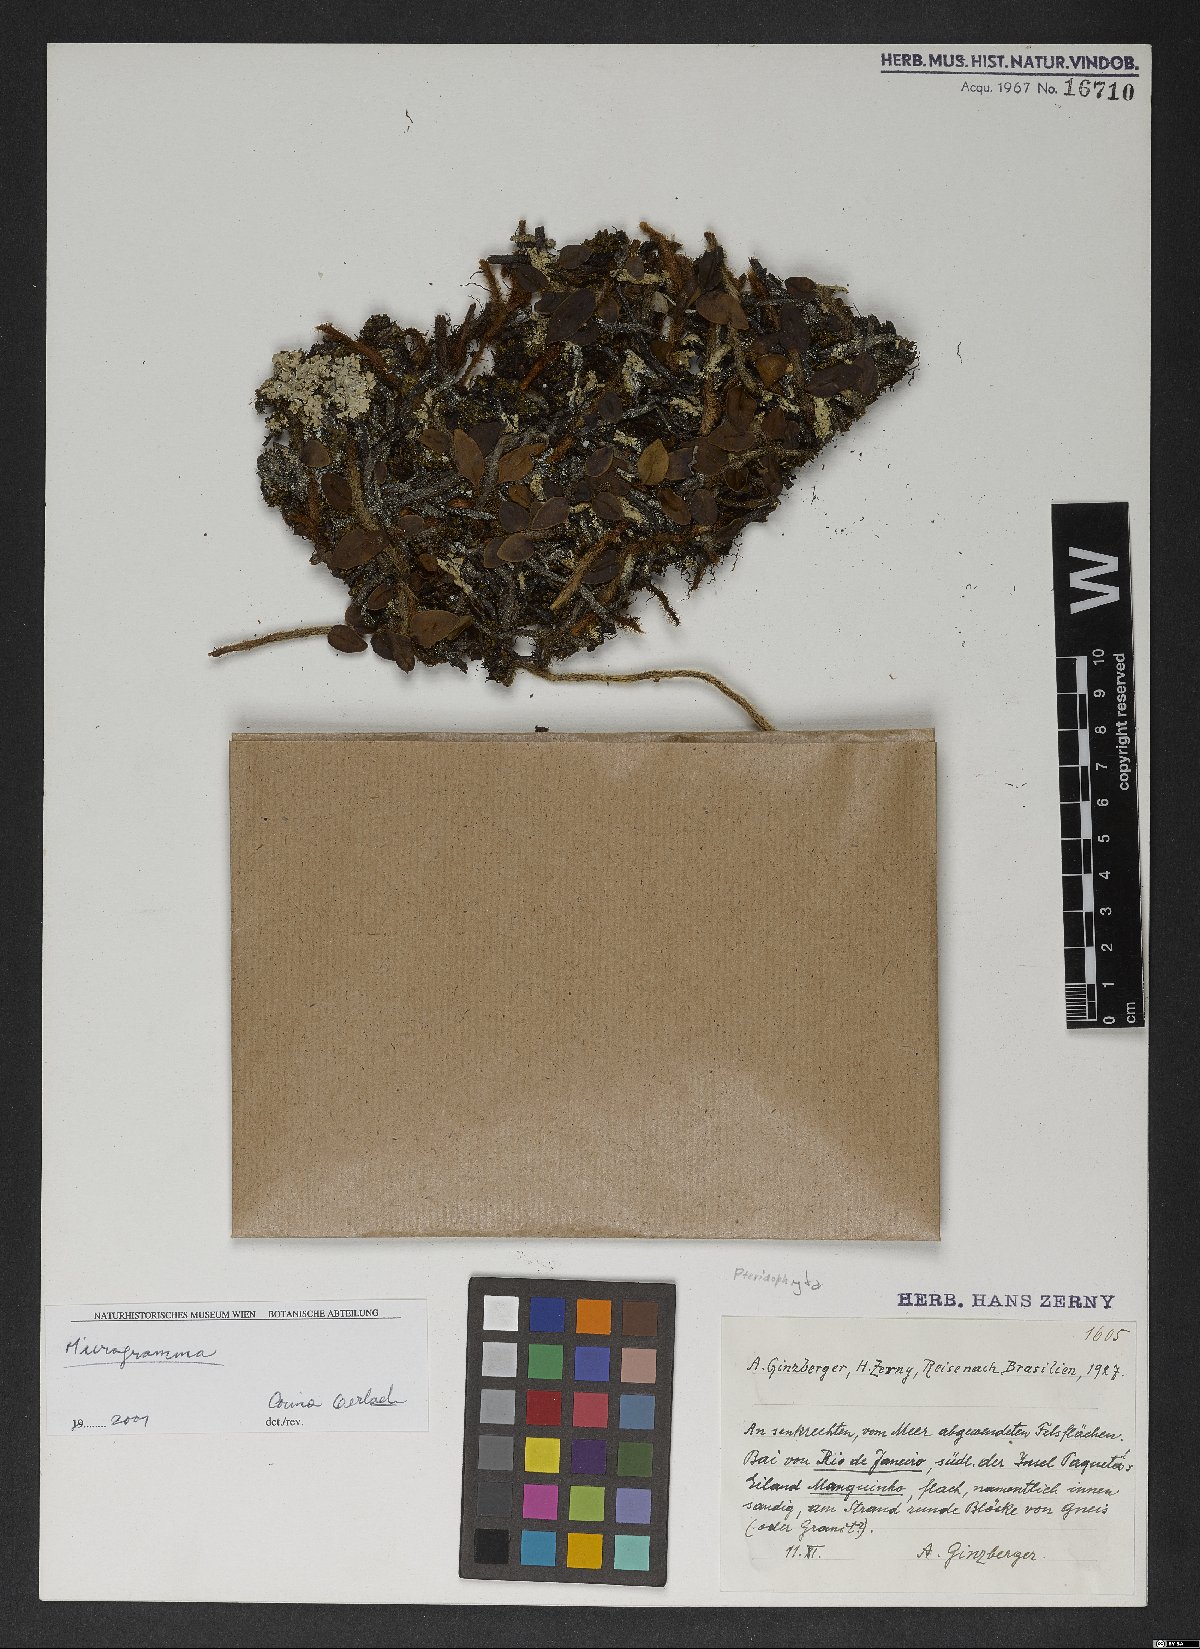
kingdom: Plantae
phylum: Tracheophyta
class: Polypodiopsida
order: Polypodiales
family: Polypodiaceae
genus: Microgramma
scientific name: Microgramma
